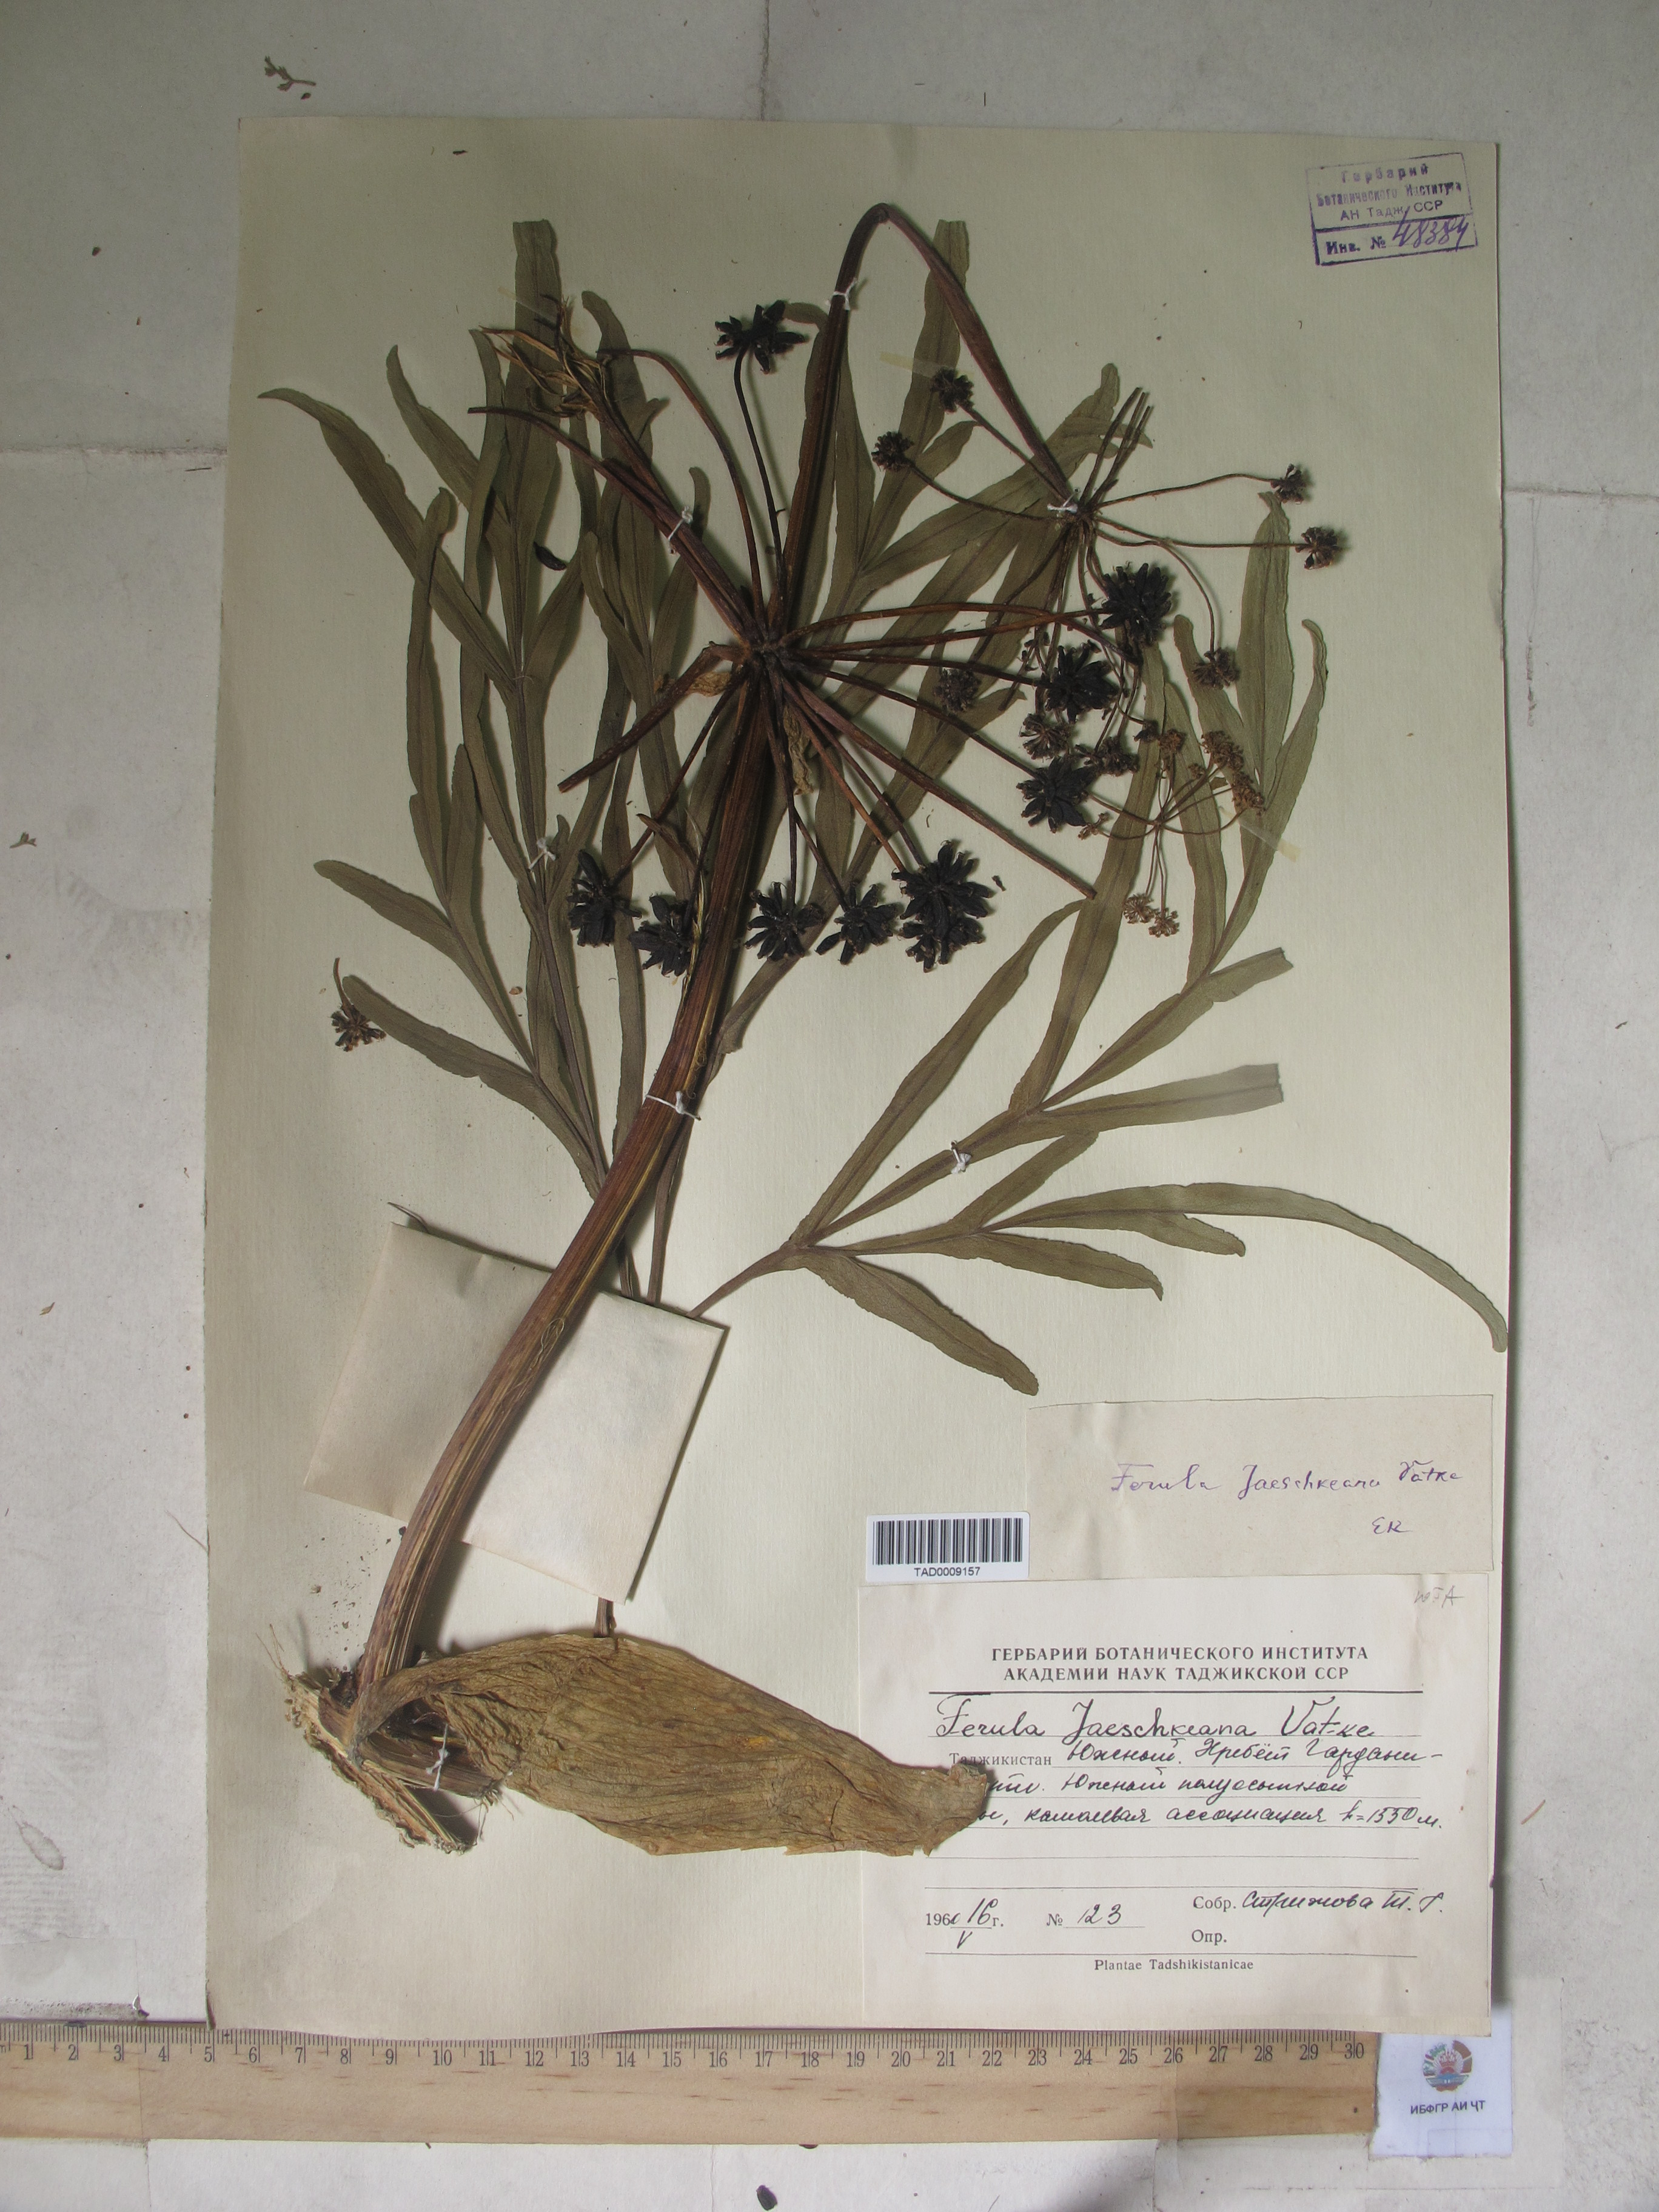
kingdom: Plantae
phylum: Tracheophyta
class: Magnoliopsida
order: Apiales
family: Apiaceae
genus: Ferula
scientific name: Ferula jaeschkeana
